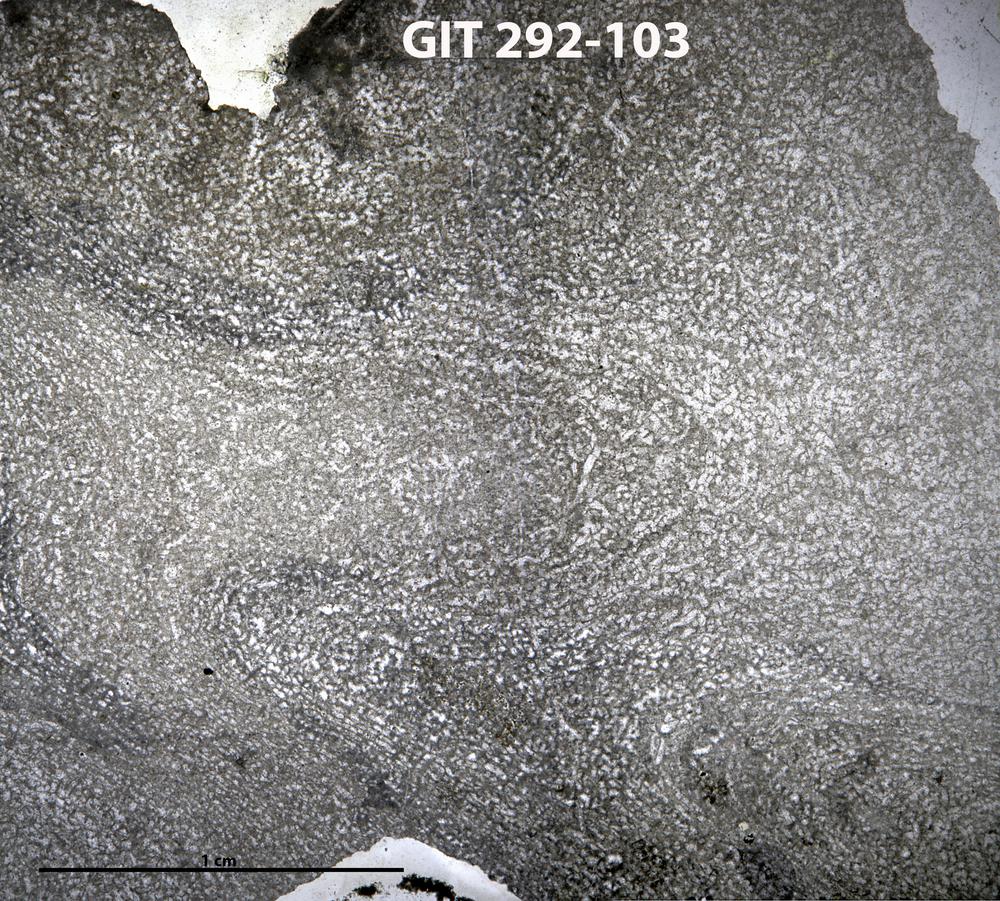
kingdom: Animalia
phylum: Porifera
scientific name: Porifera
